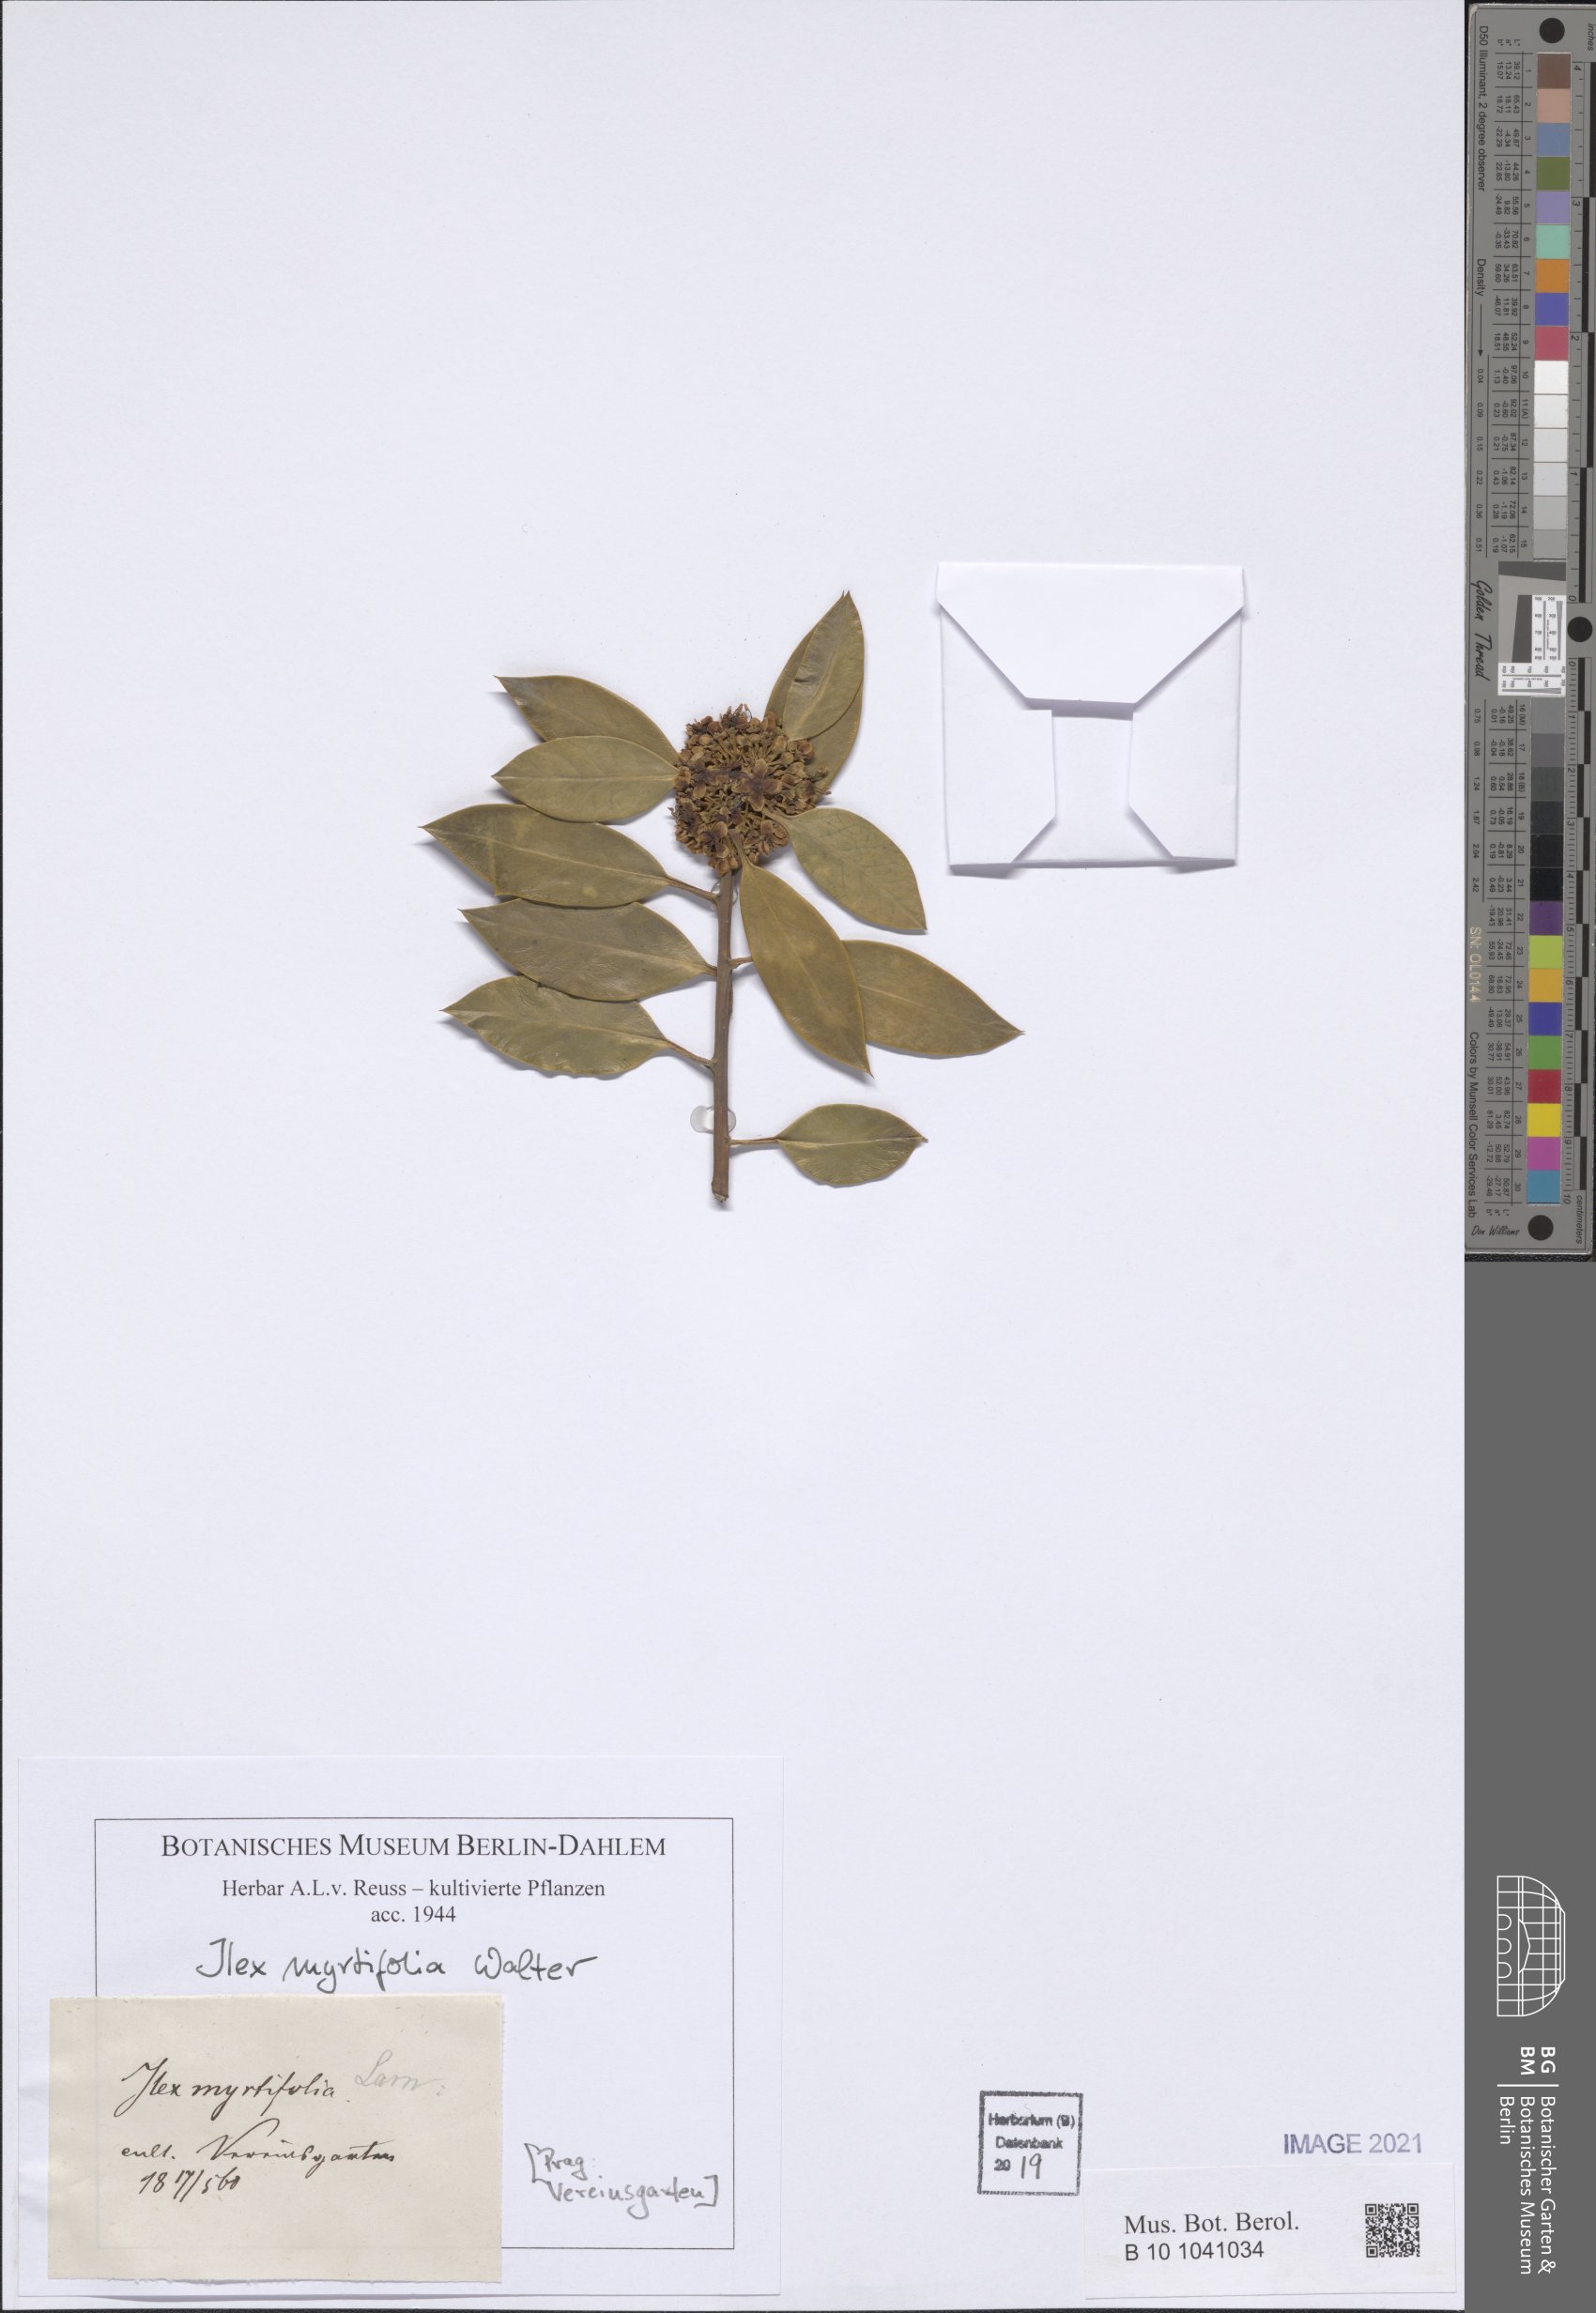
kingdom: Plantae
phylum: Tracheophyta
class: Magnoliopsida
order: Aquifoliales
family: Aquifoliaceae
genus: Ilex
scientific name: Ilex myrtifolia
